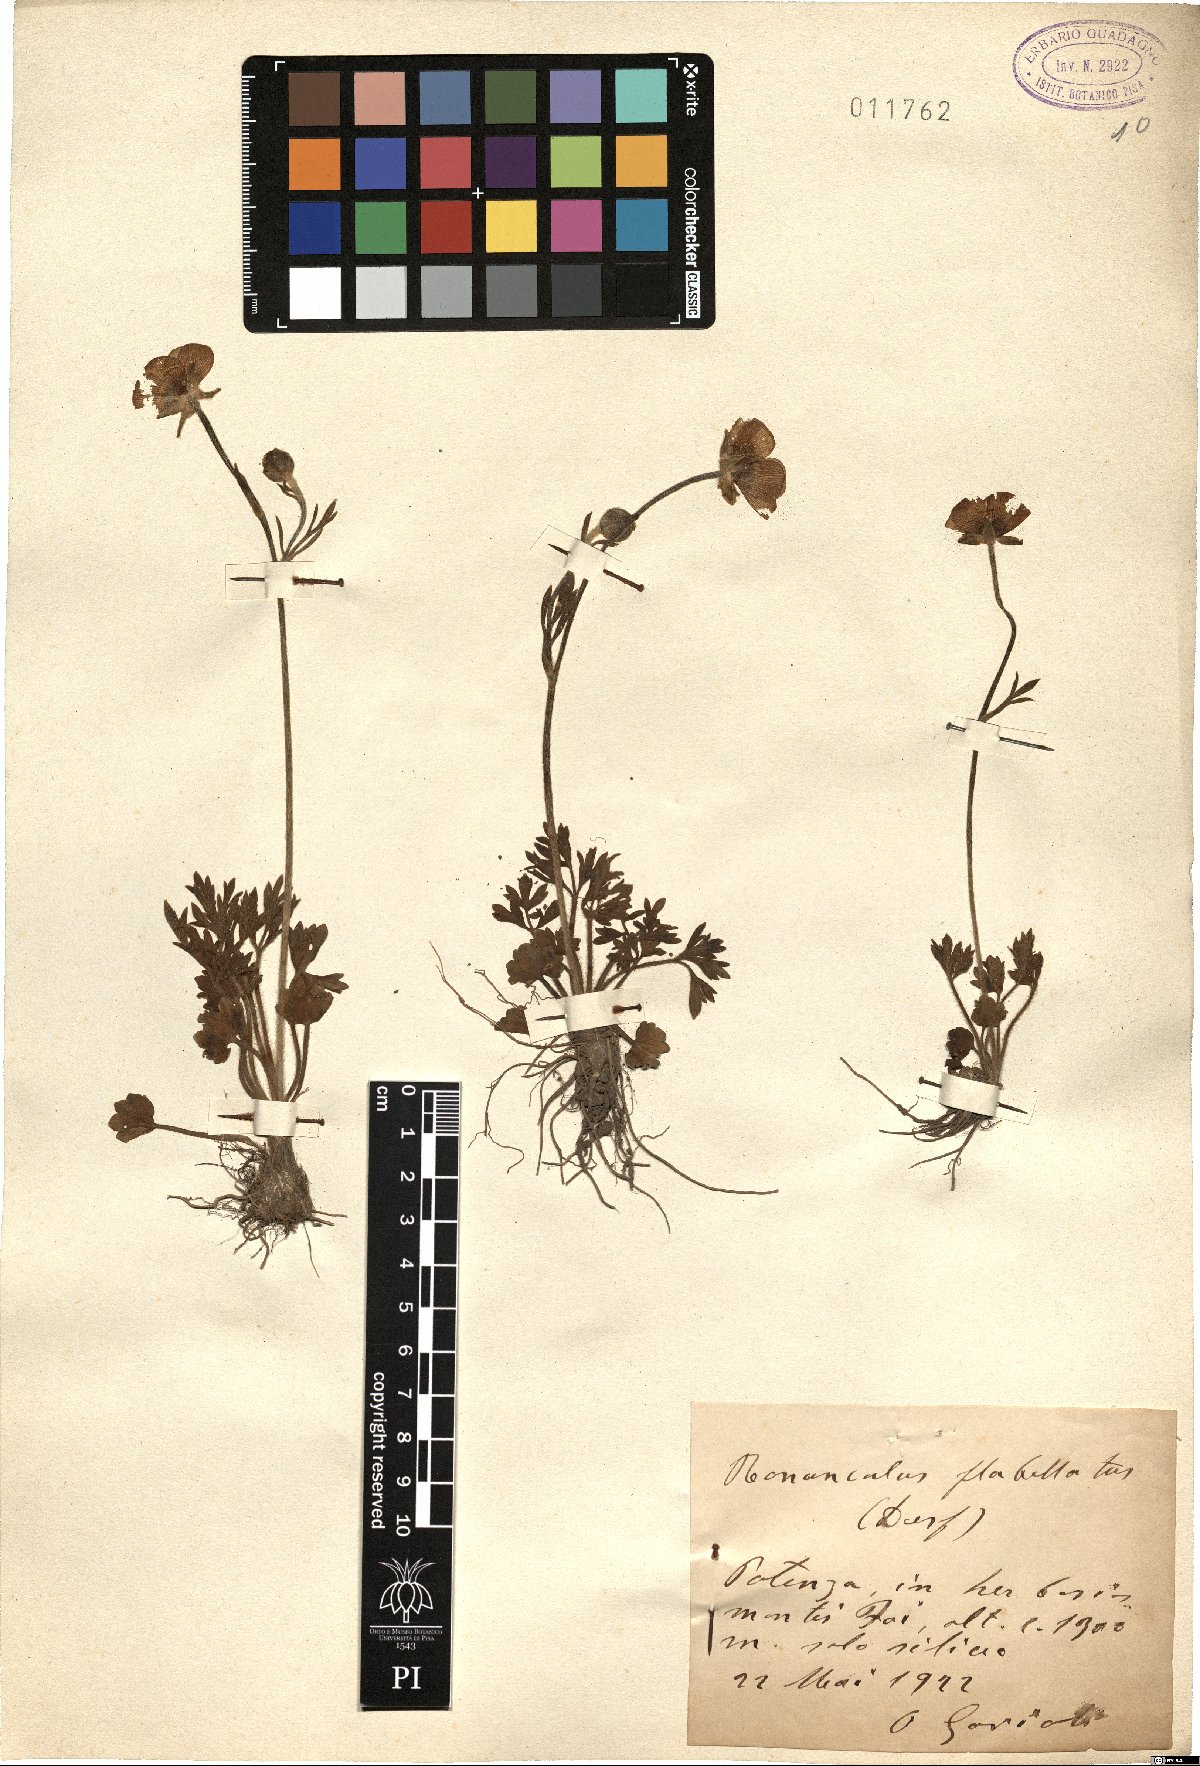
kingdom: Plantae
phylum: Tracheophyta
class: Magnoliopsida
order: Ranunculales
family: Ranunculaceae
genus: Ranunculus
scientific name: Ranunculus paludosus
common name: Jersey buttercup
